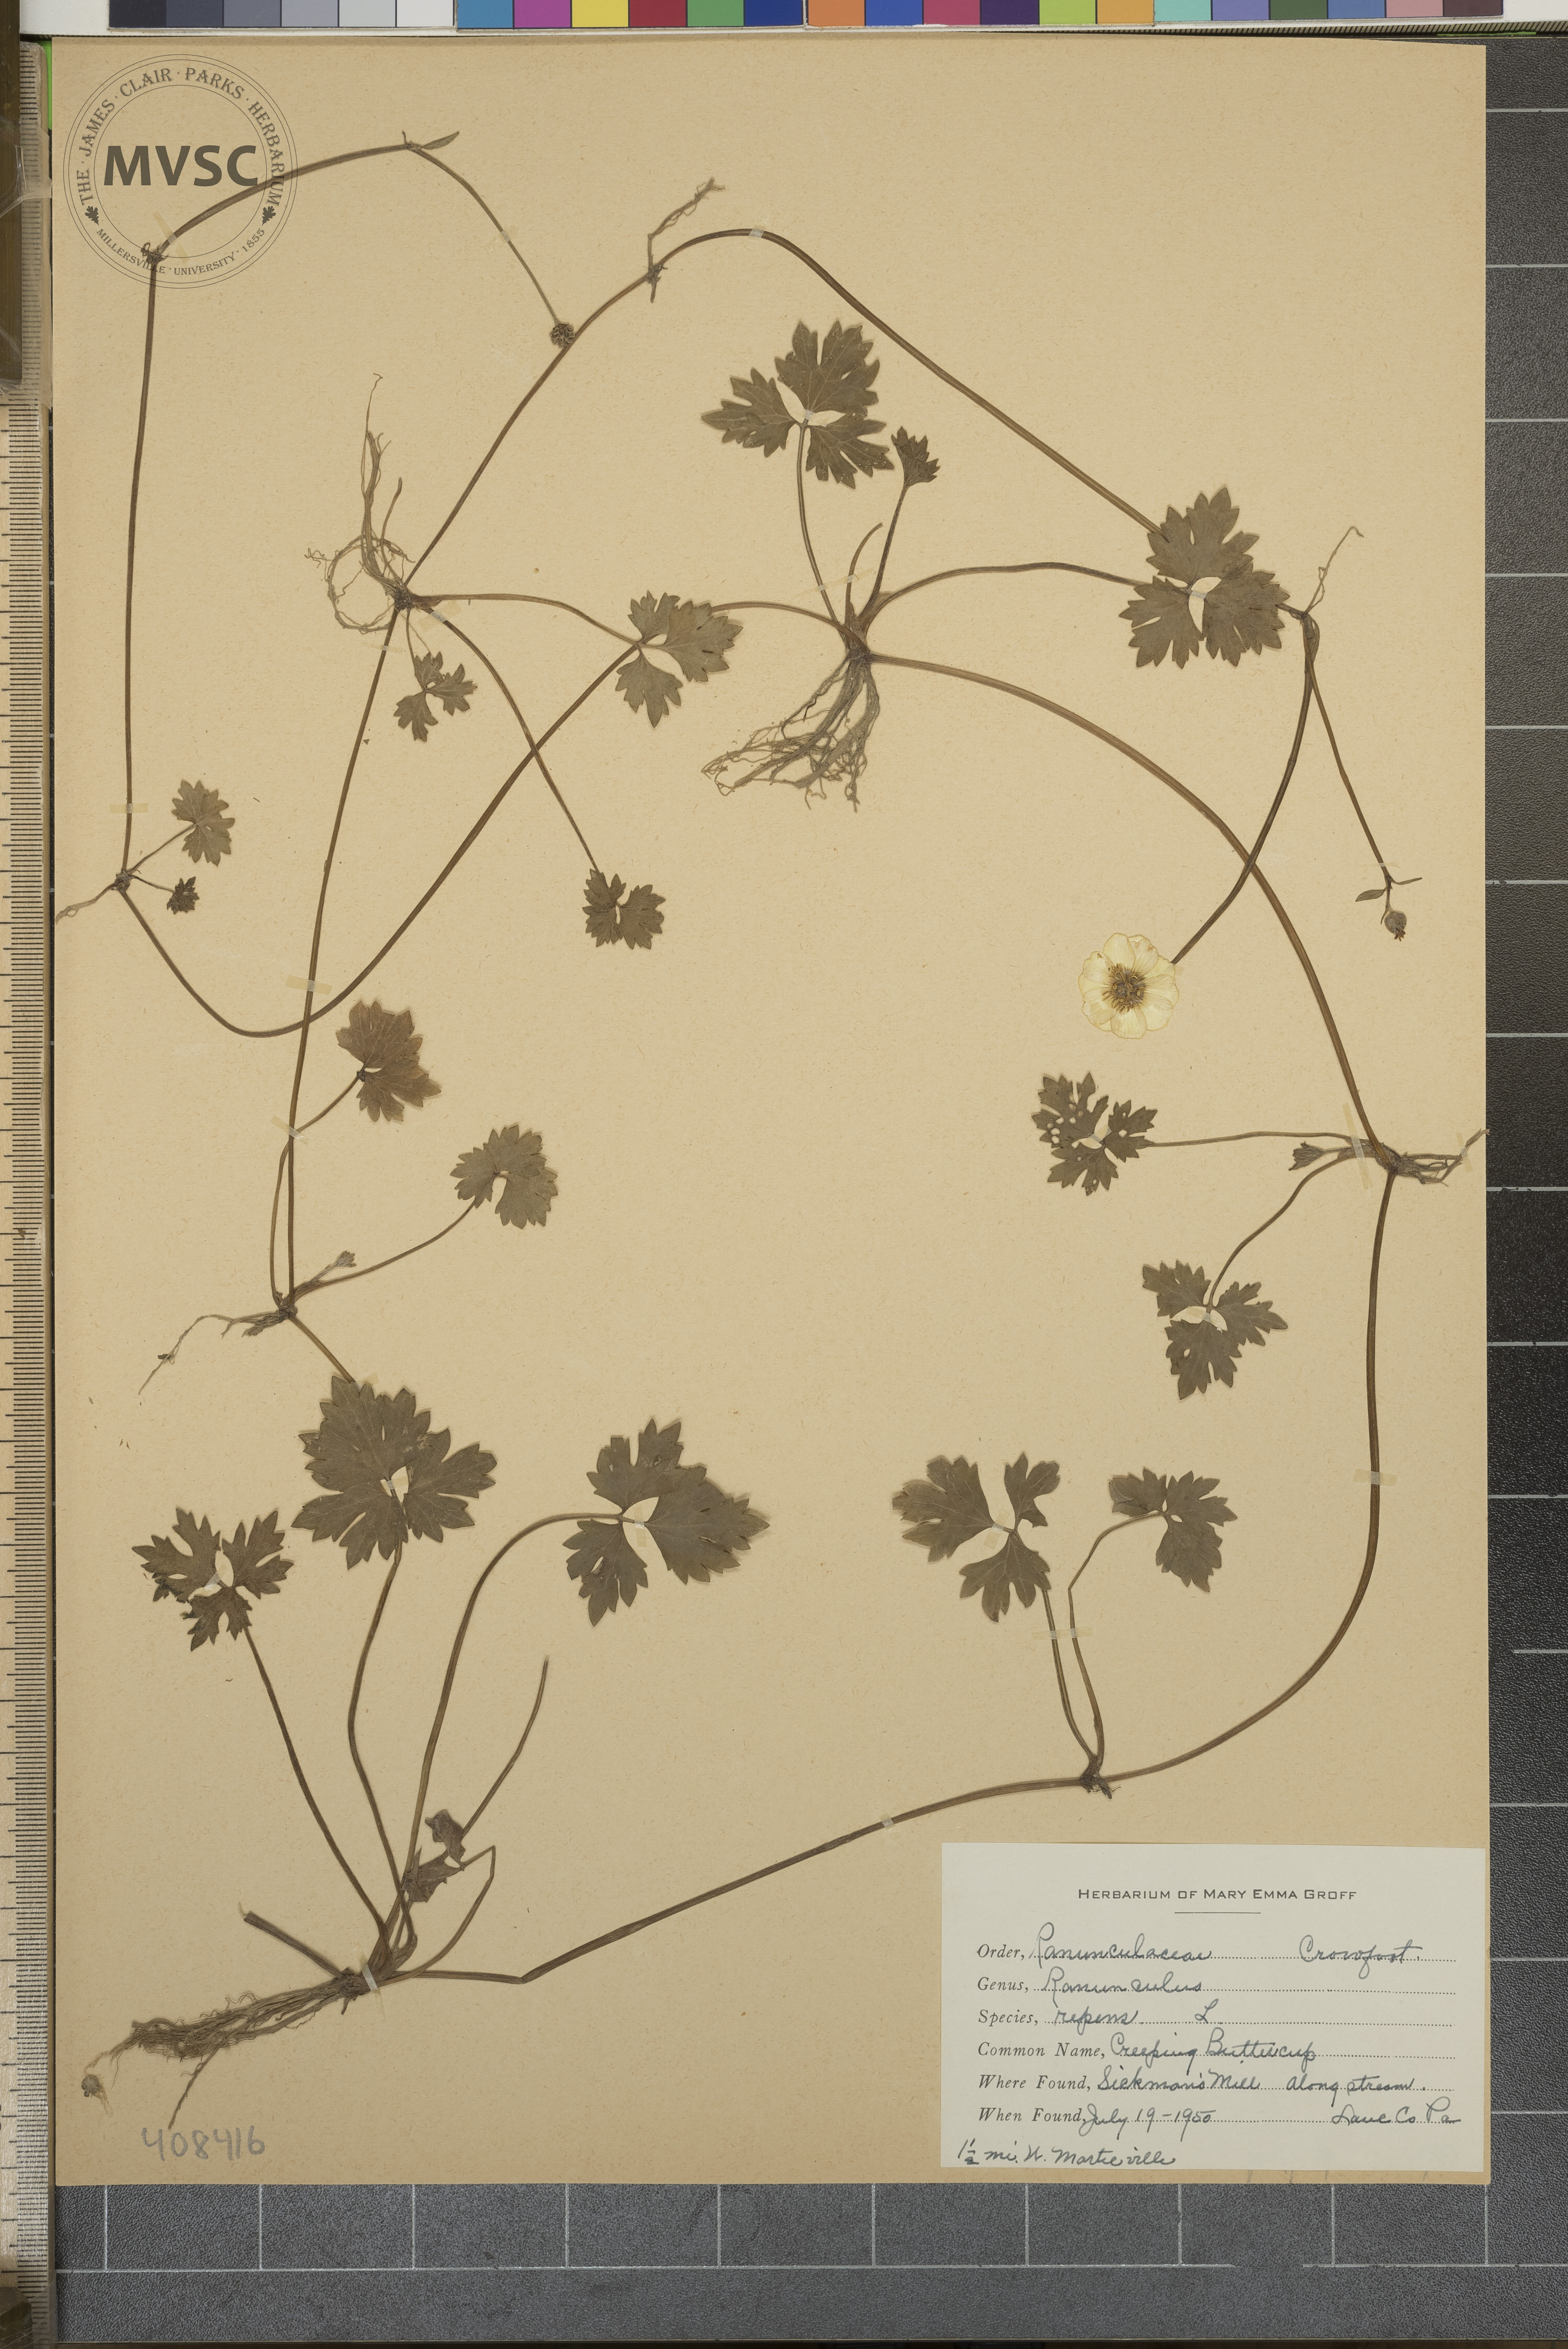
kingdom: Plantae
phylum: Tracheophyta
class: Magnoliopsida
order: Ranunculales
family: Ranunculaceae
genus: Ranunculus
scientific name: Ranunculus repens
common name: Creeping Buttercup
